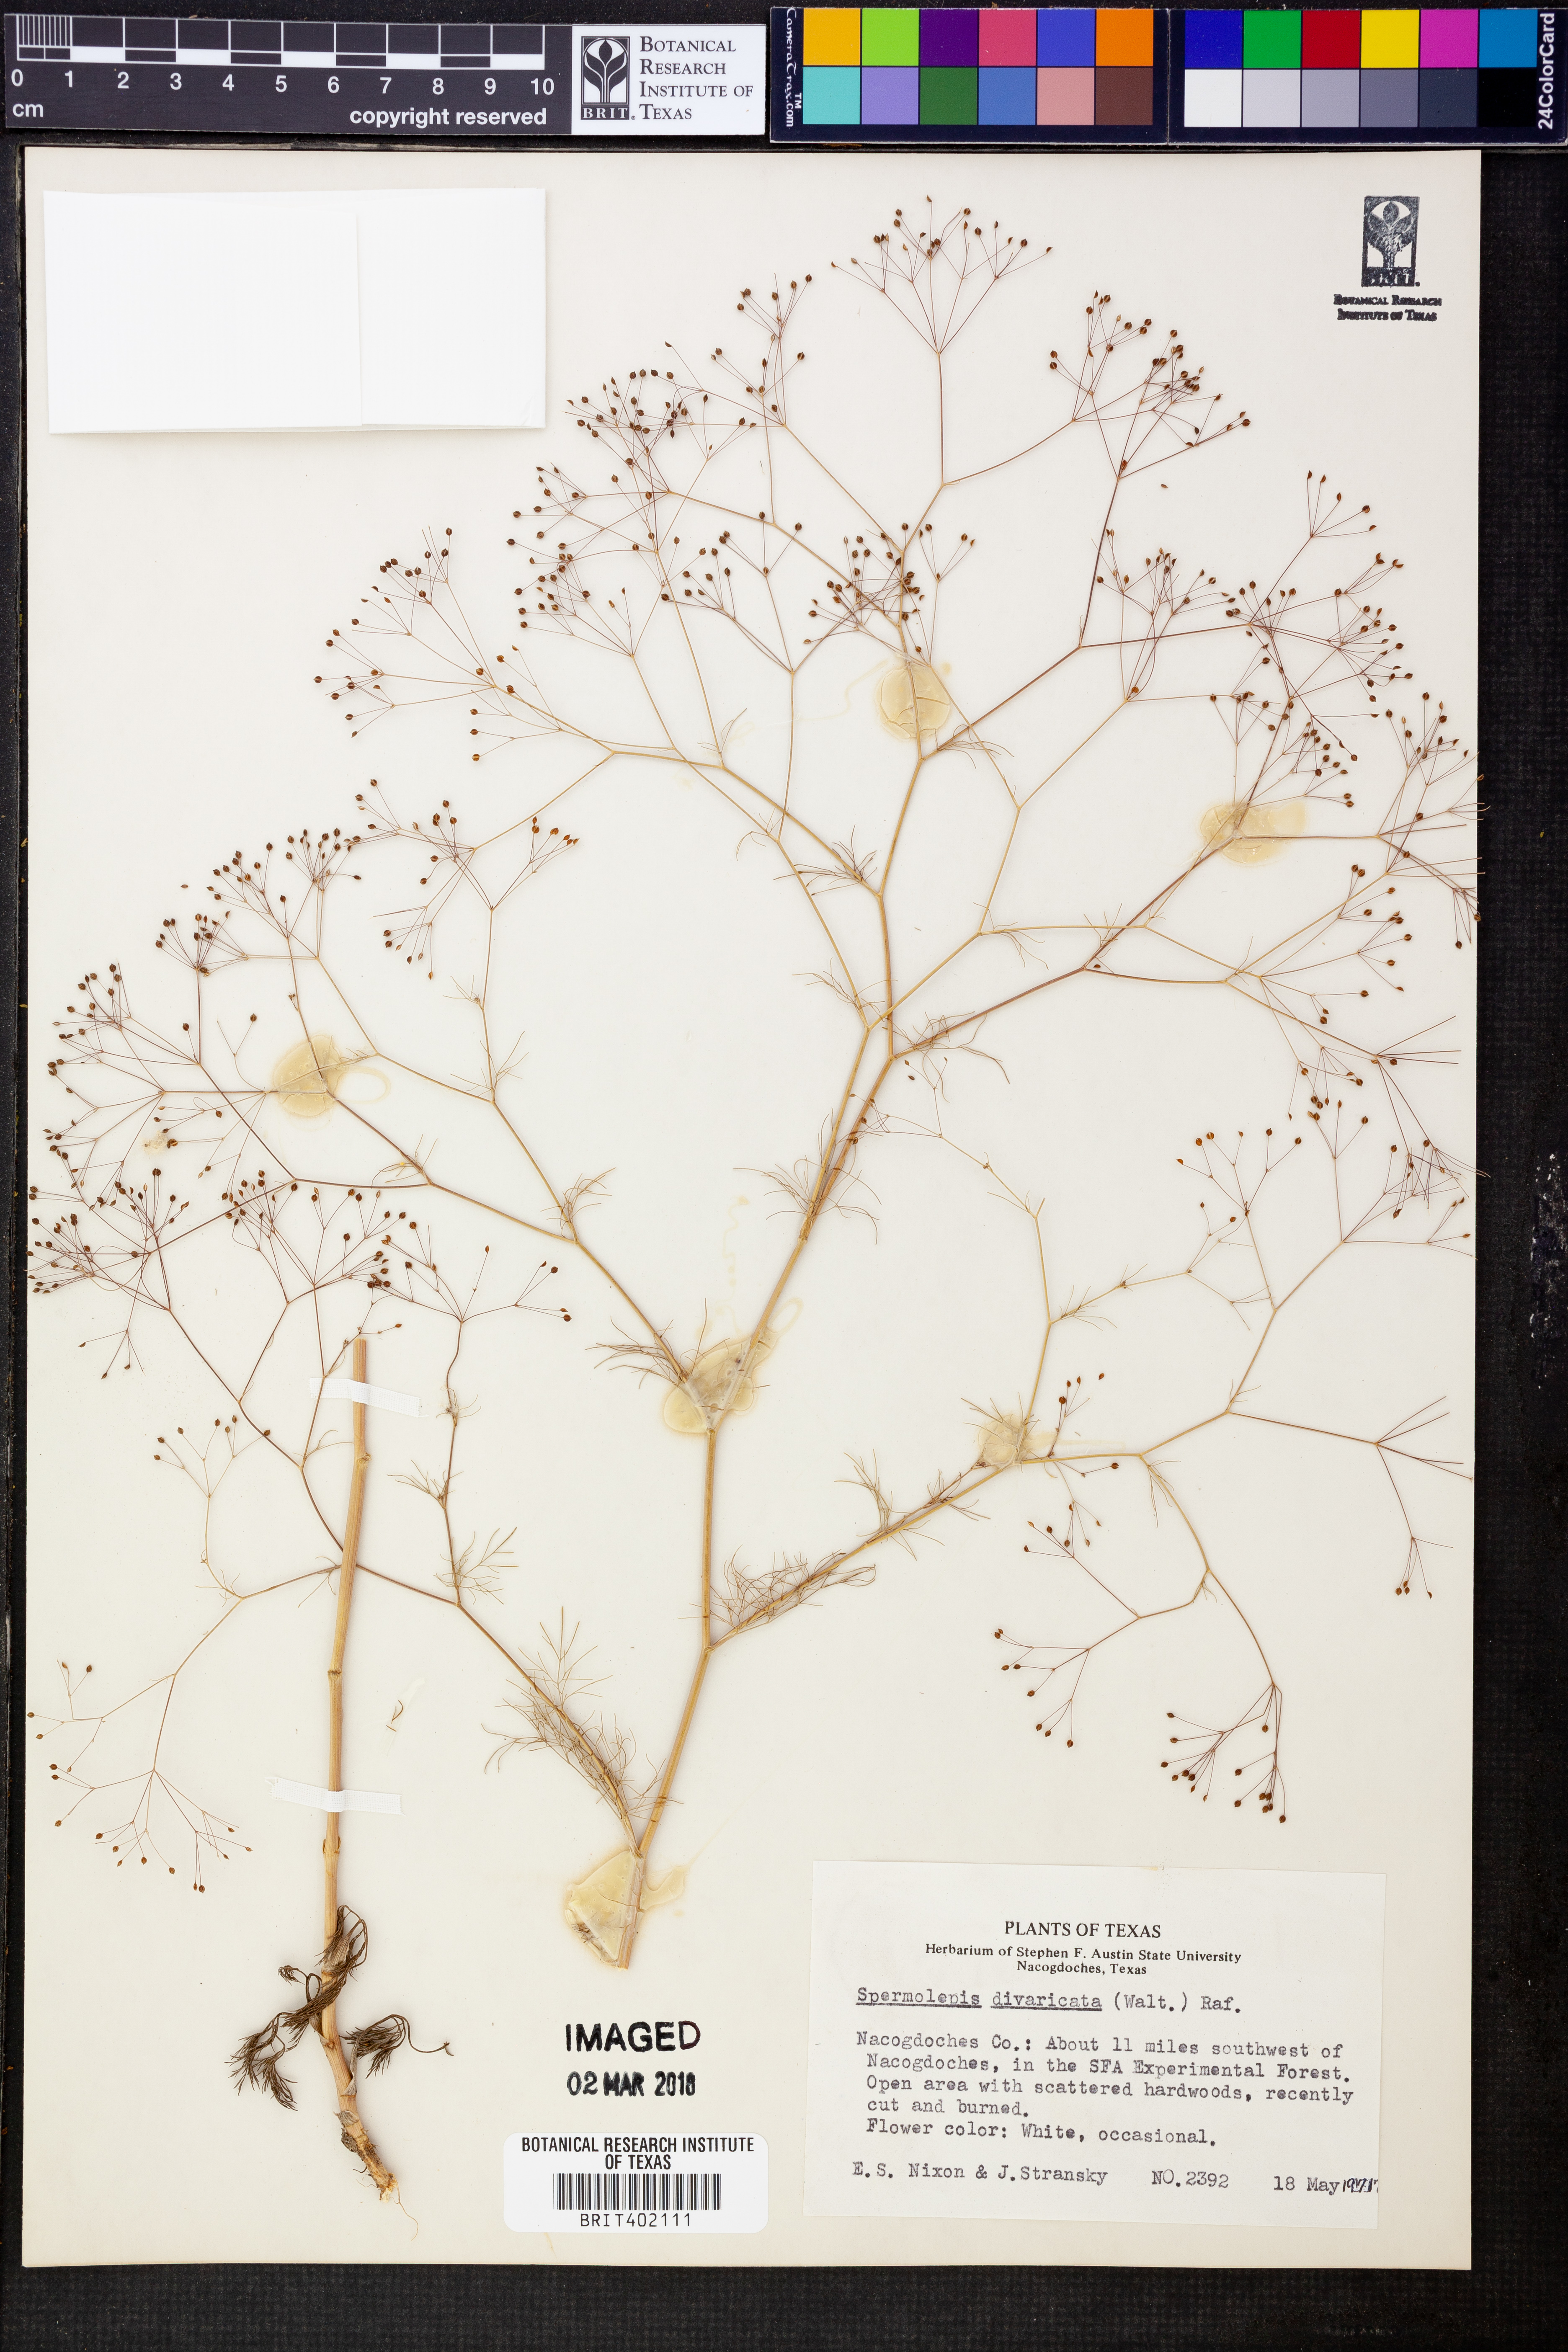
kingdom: Plantae
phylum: Tracheophyta
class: Magnoliopsida
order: Apiales
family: Apiaceae
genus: Spermolepis
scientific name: Spermolepis divaricata
